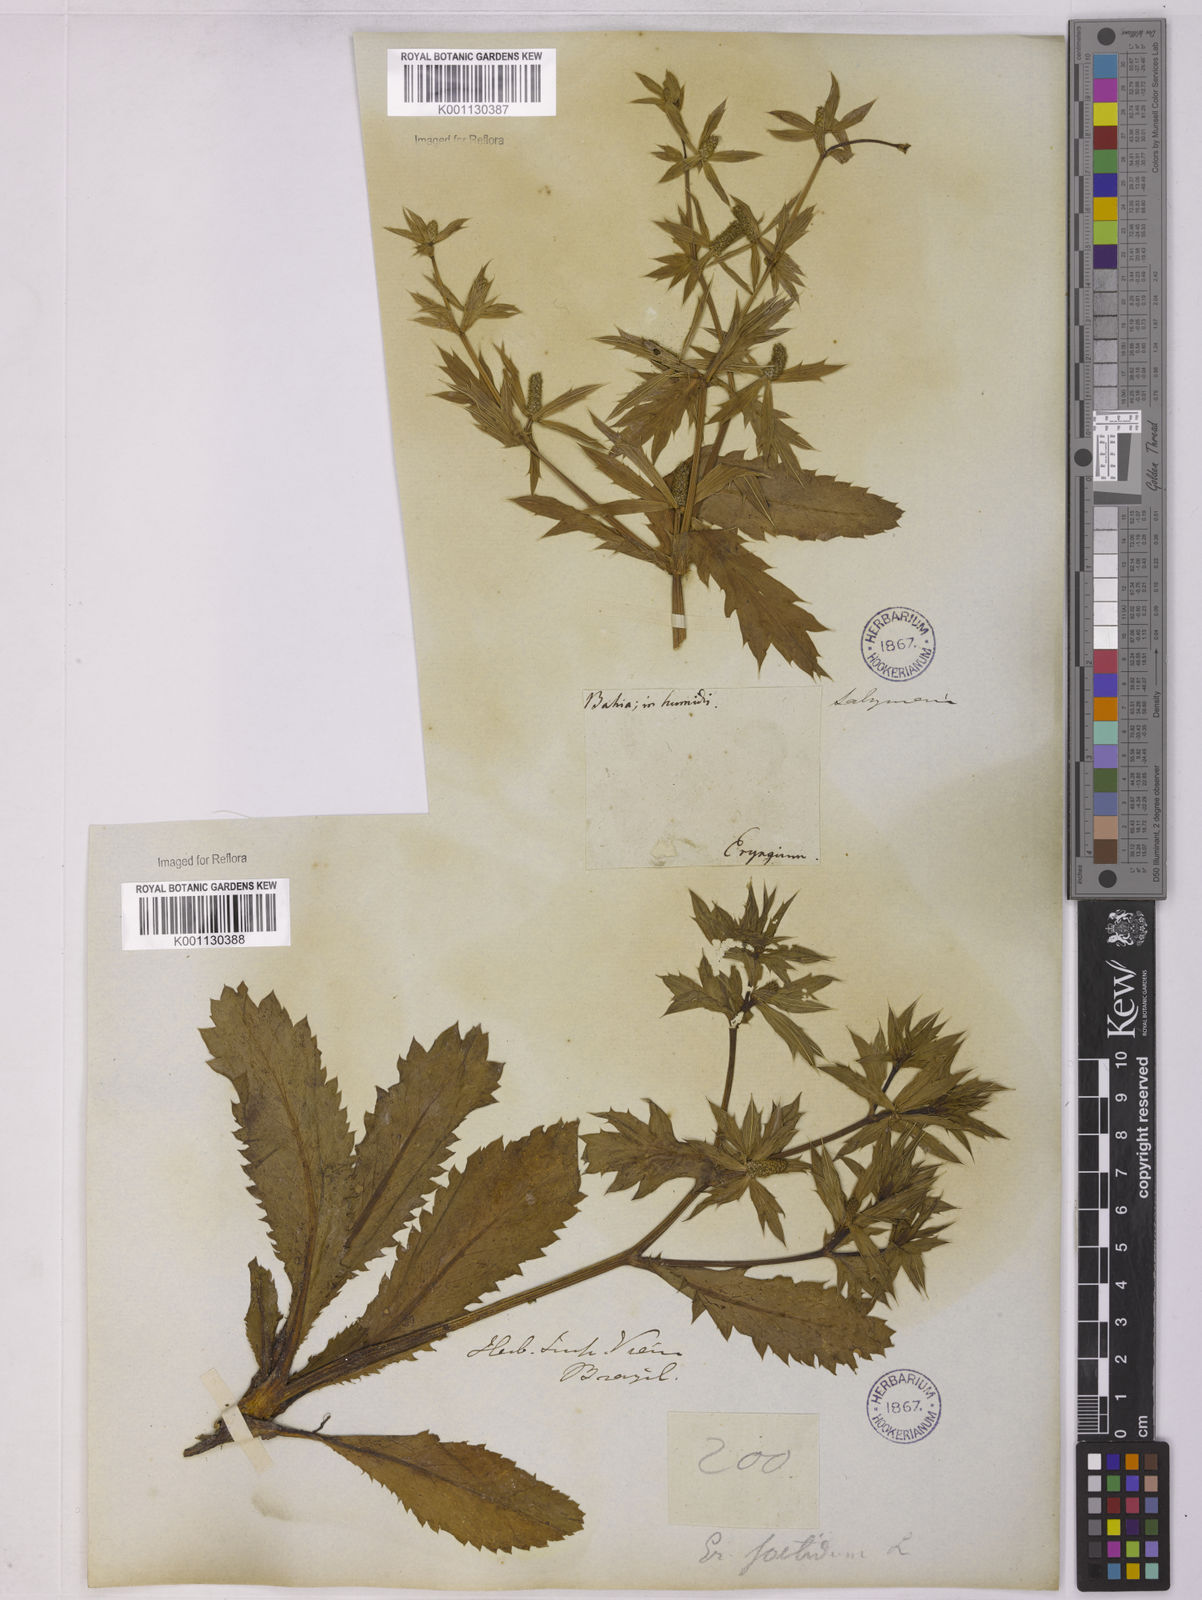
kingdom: Plantae
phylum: Tracheophyta
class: Magnoliopsida
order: Apiales
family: Apiaceae
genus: Eryngium
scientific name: Eryngium foetidum
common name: Fitweed
